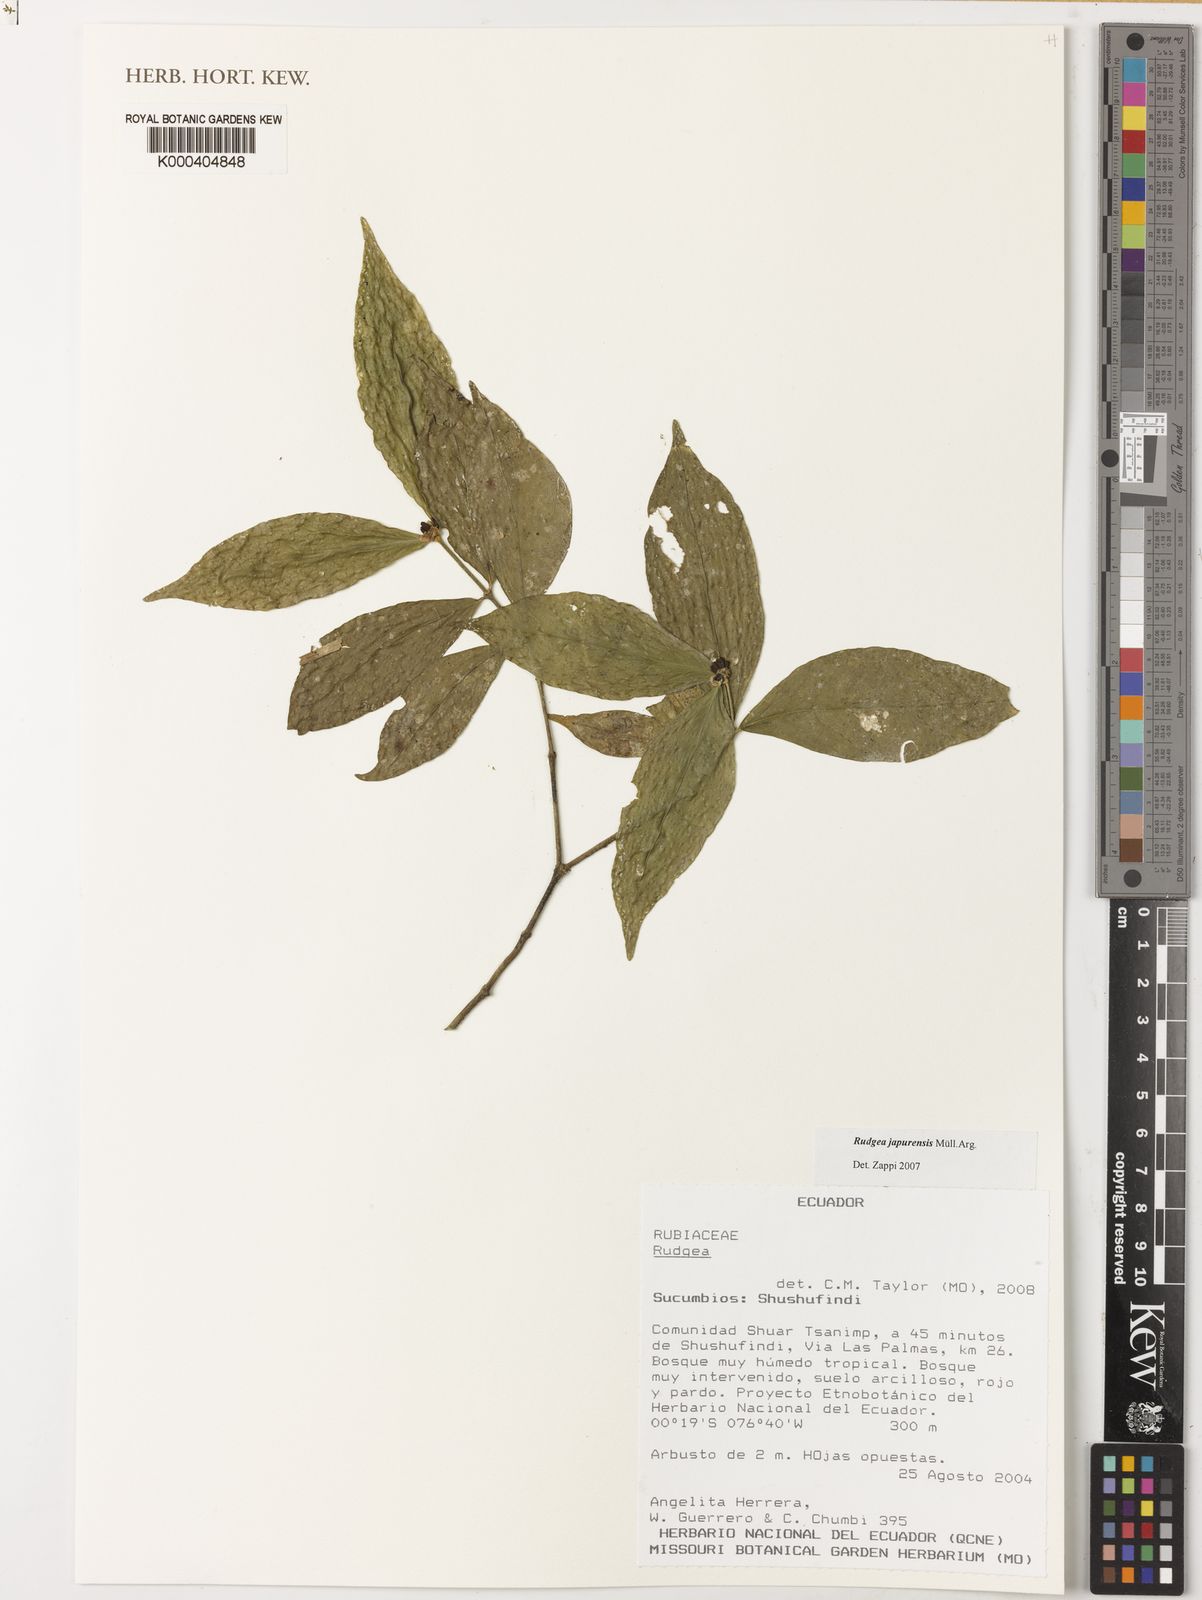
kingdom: Plantae
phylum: Tracheophyta
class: Magnoliopsida
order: Gentianales
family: Rubiaceae
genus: Rudgea
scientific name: Rudgea panurensis
